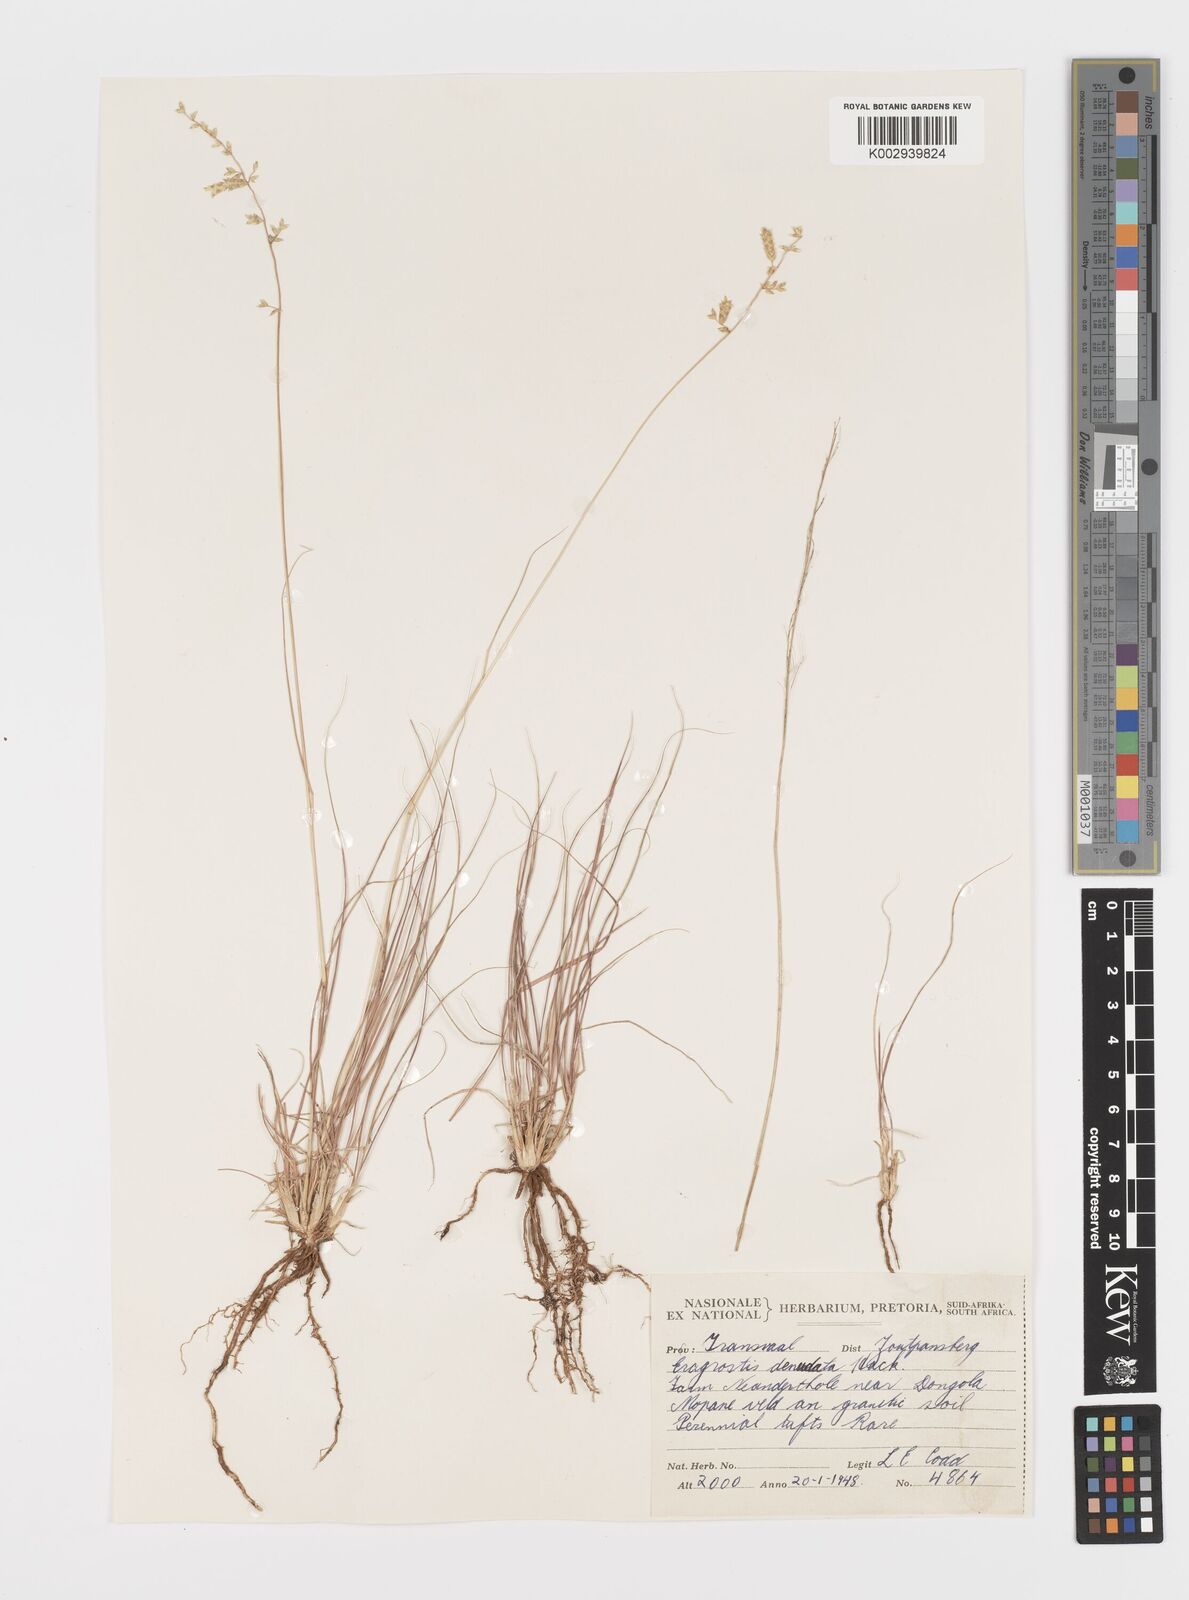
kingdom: Plantae
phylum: Tracheophyta
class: Liliopsida
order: Poales
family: Poaceae
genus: Eragrostis
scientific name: Eragrostis nindensis
